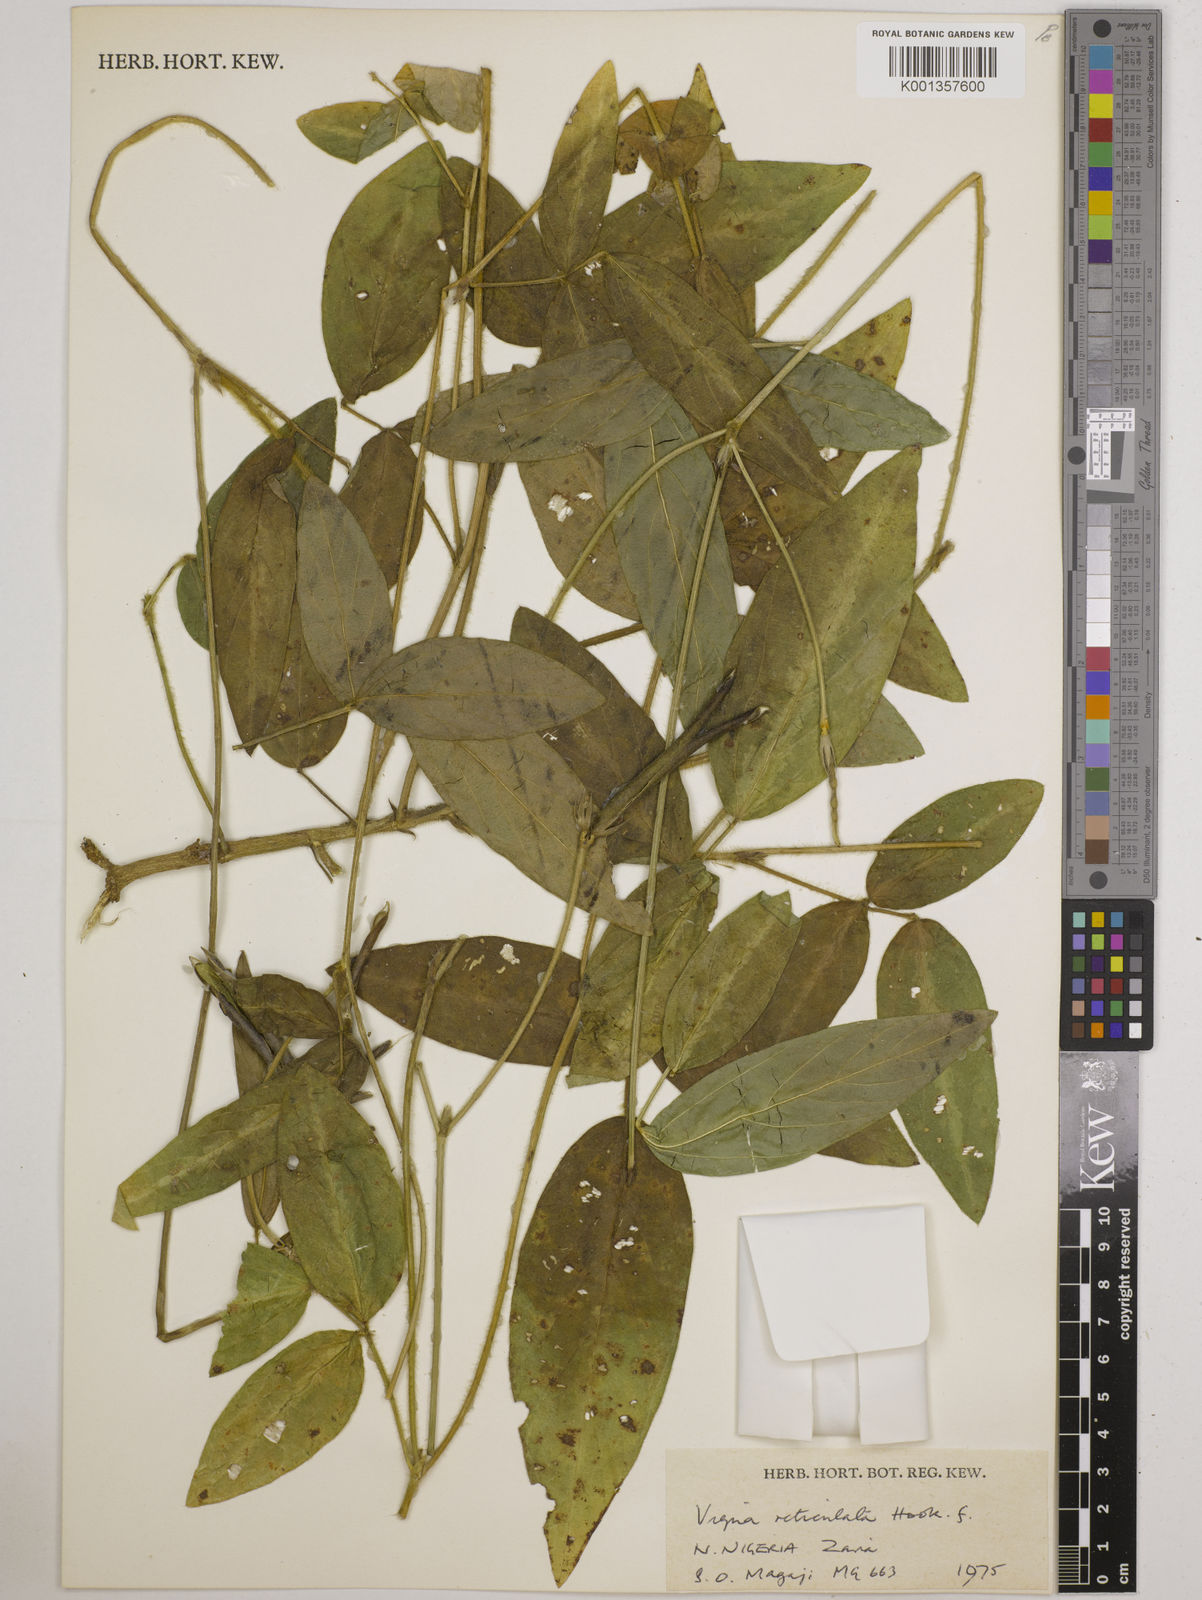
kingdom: Plantae
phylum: Tracheophyta
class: Magnoliopsida
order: Fabales
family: Fabaceae
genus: Vigna
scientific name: Vigna reticulata
